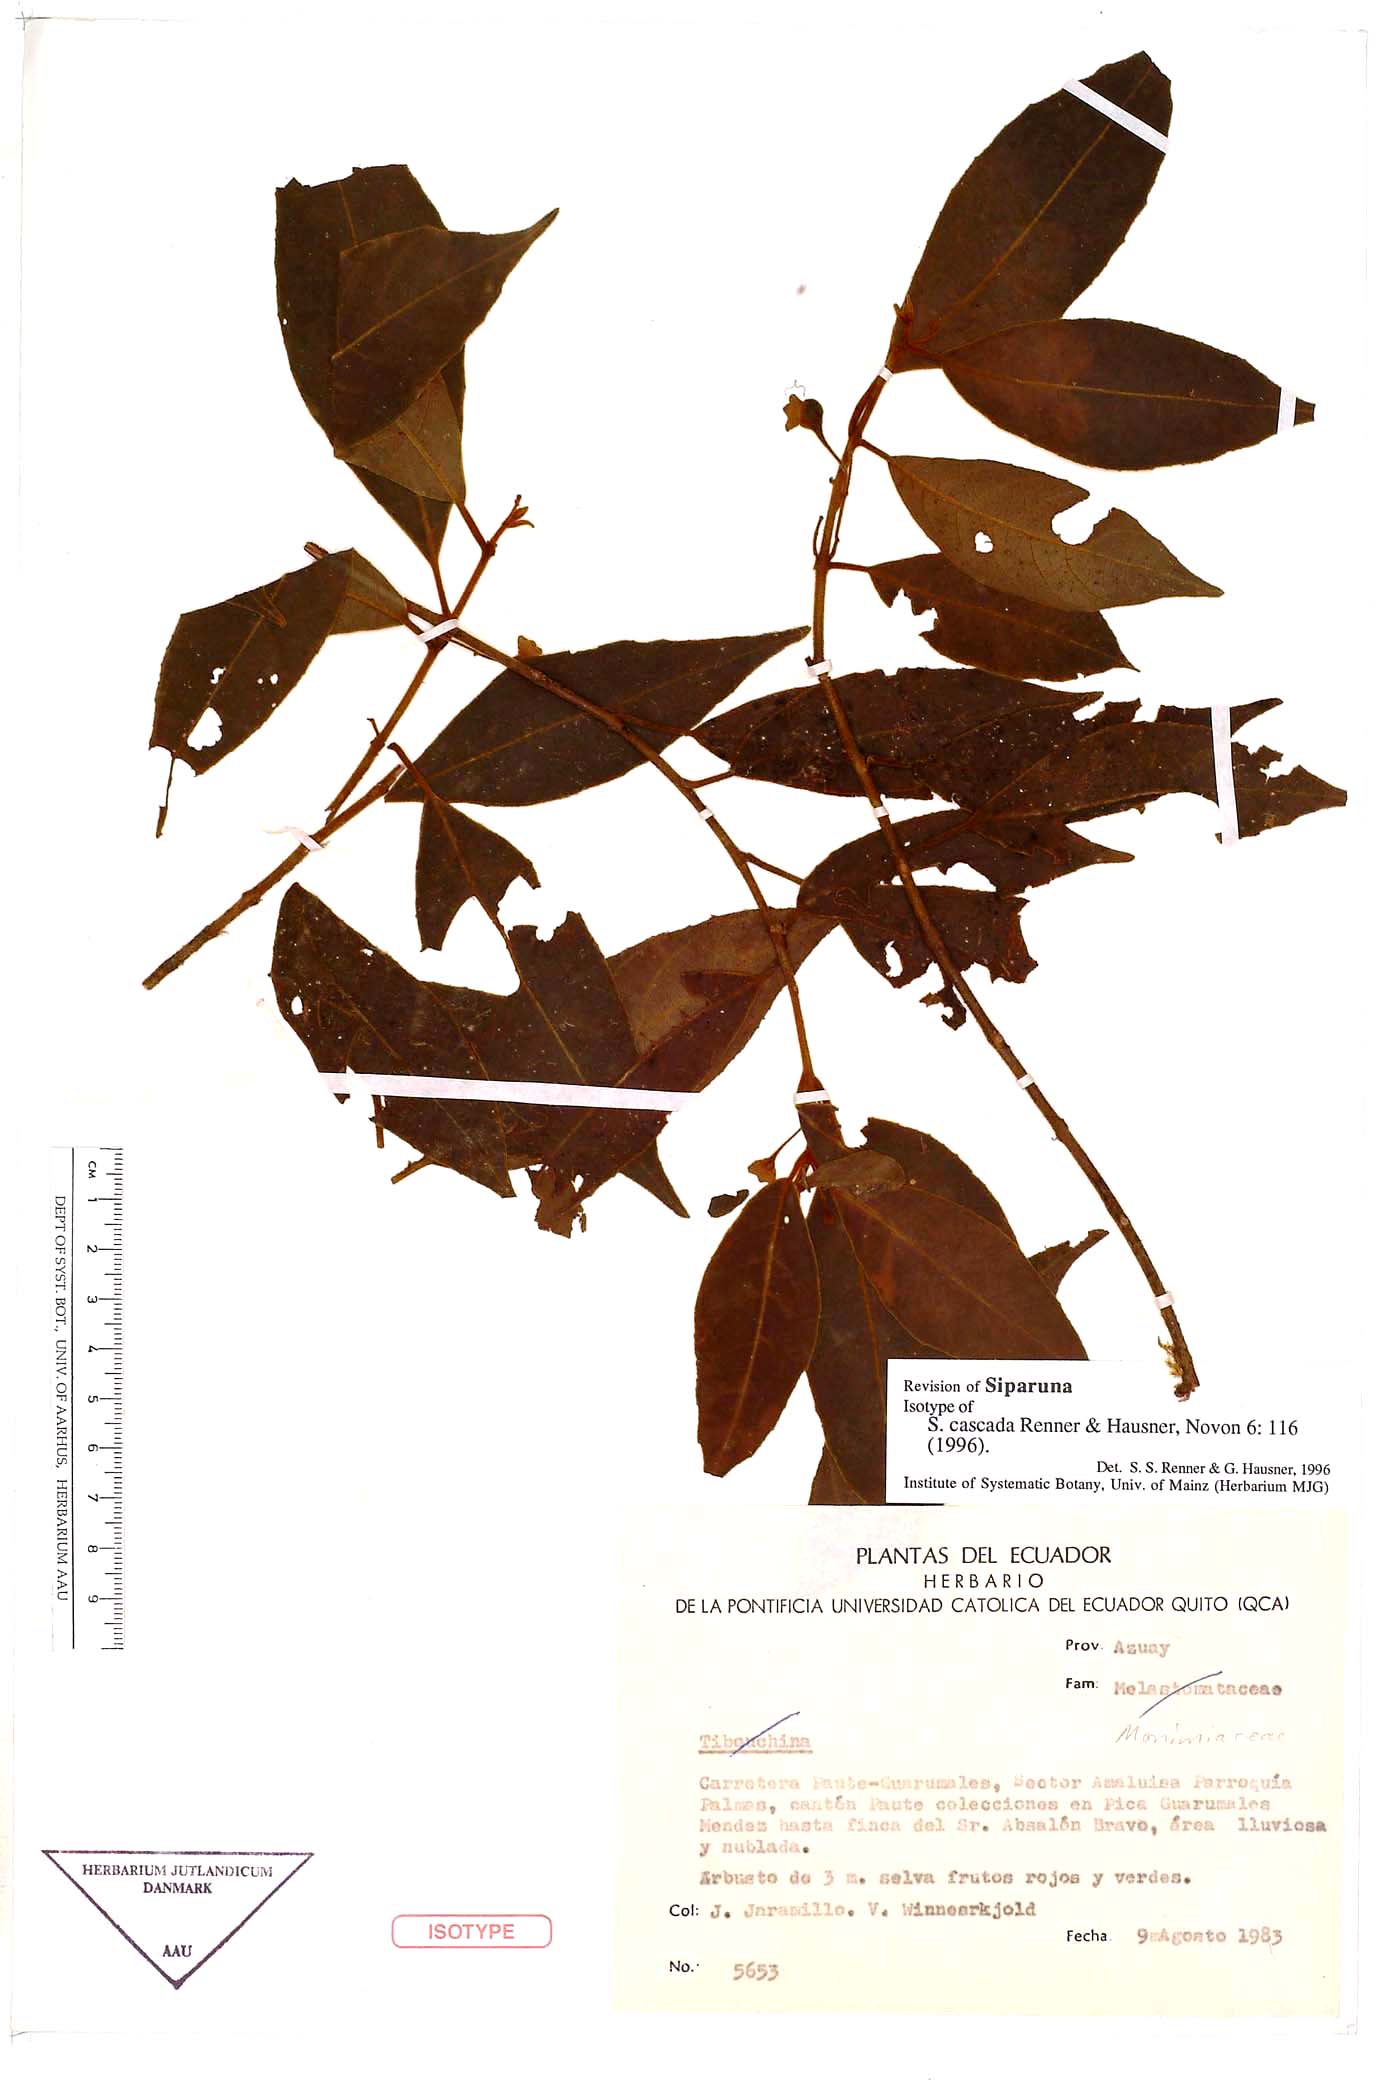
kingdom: Plantae
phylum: Tracheophyta
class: Magnoliopsida
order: Laurales
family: Siparunaceae
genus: Siparuna
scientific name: Siparuna cascada
